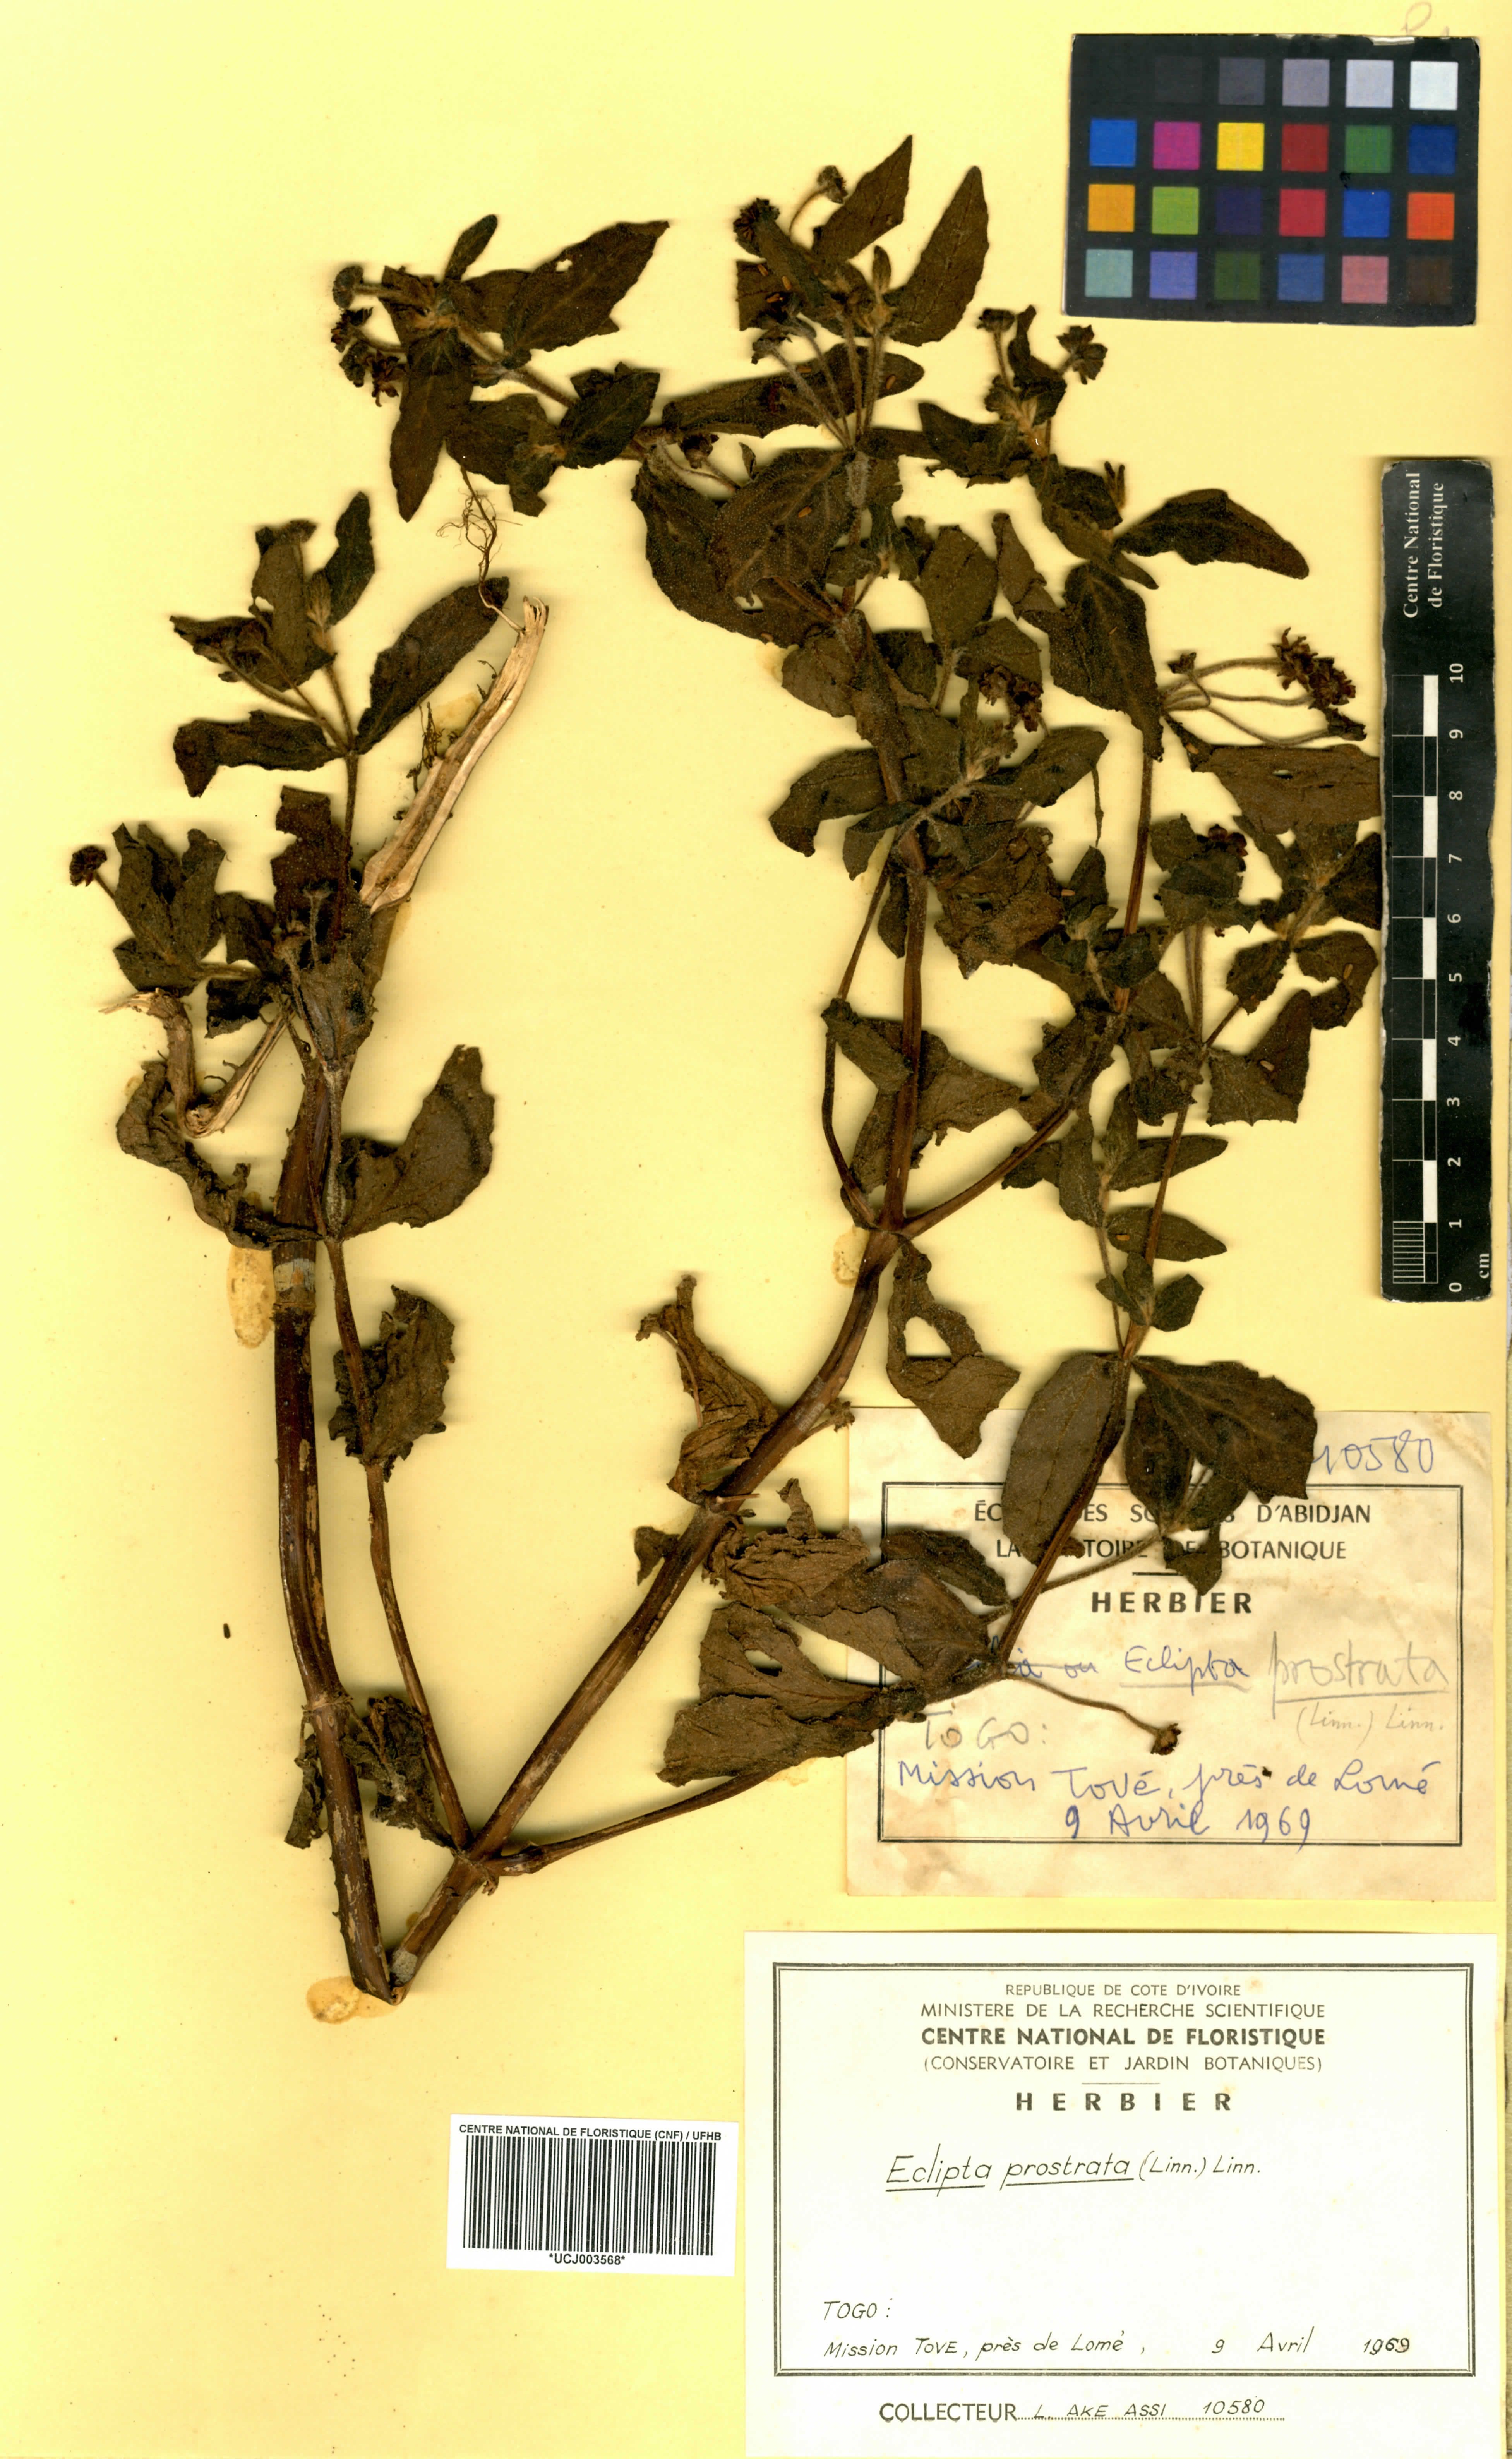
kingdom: Plantae
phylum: Tracheophyta
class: Magnoliopsida
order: Asterales
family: Asteraceae
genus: Eclipta
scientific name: Eclipta prostrata
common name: False daisy
